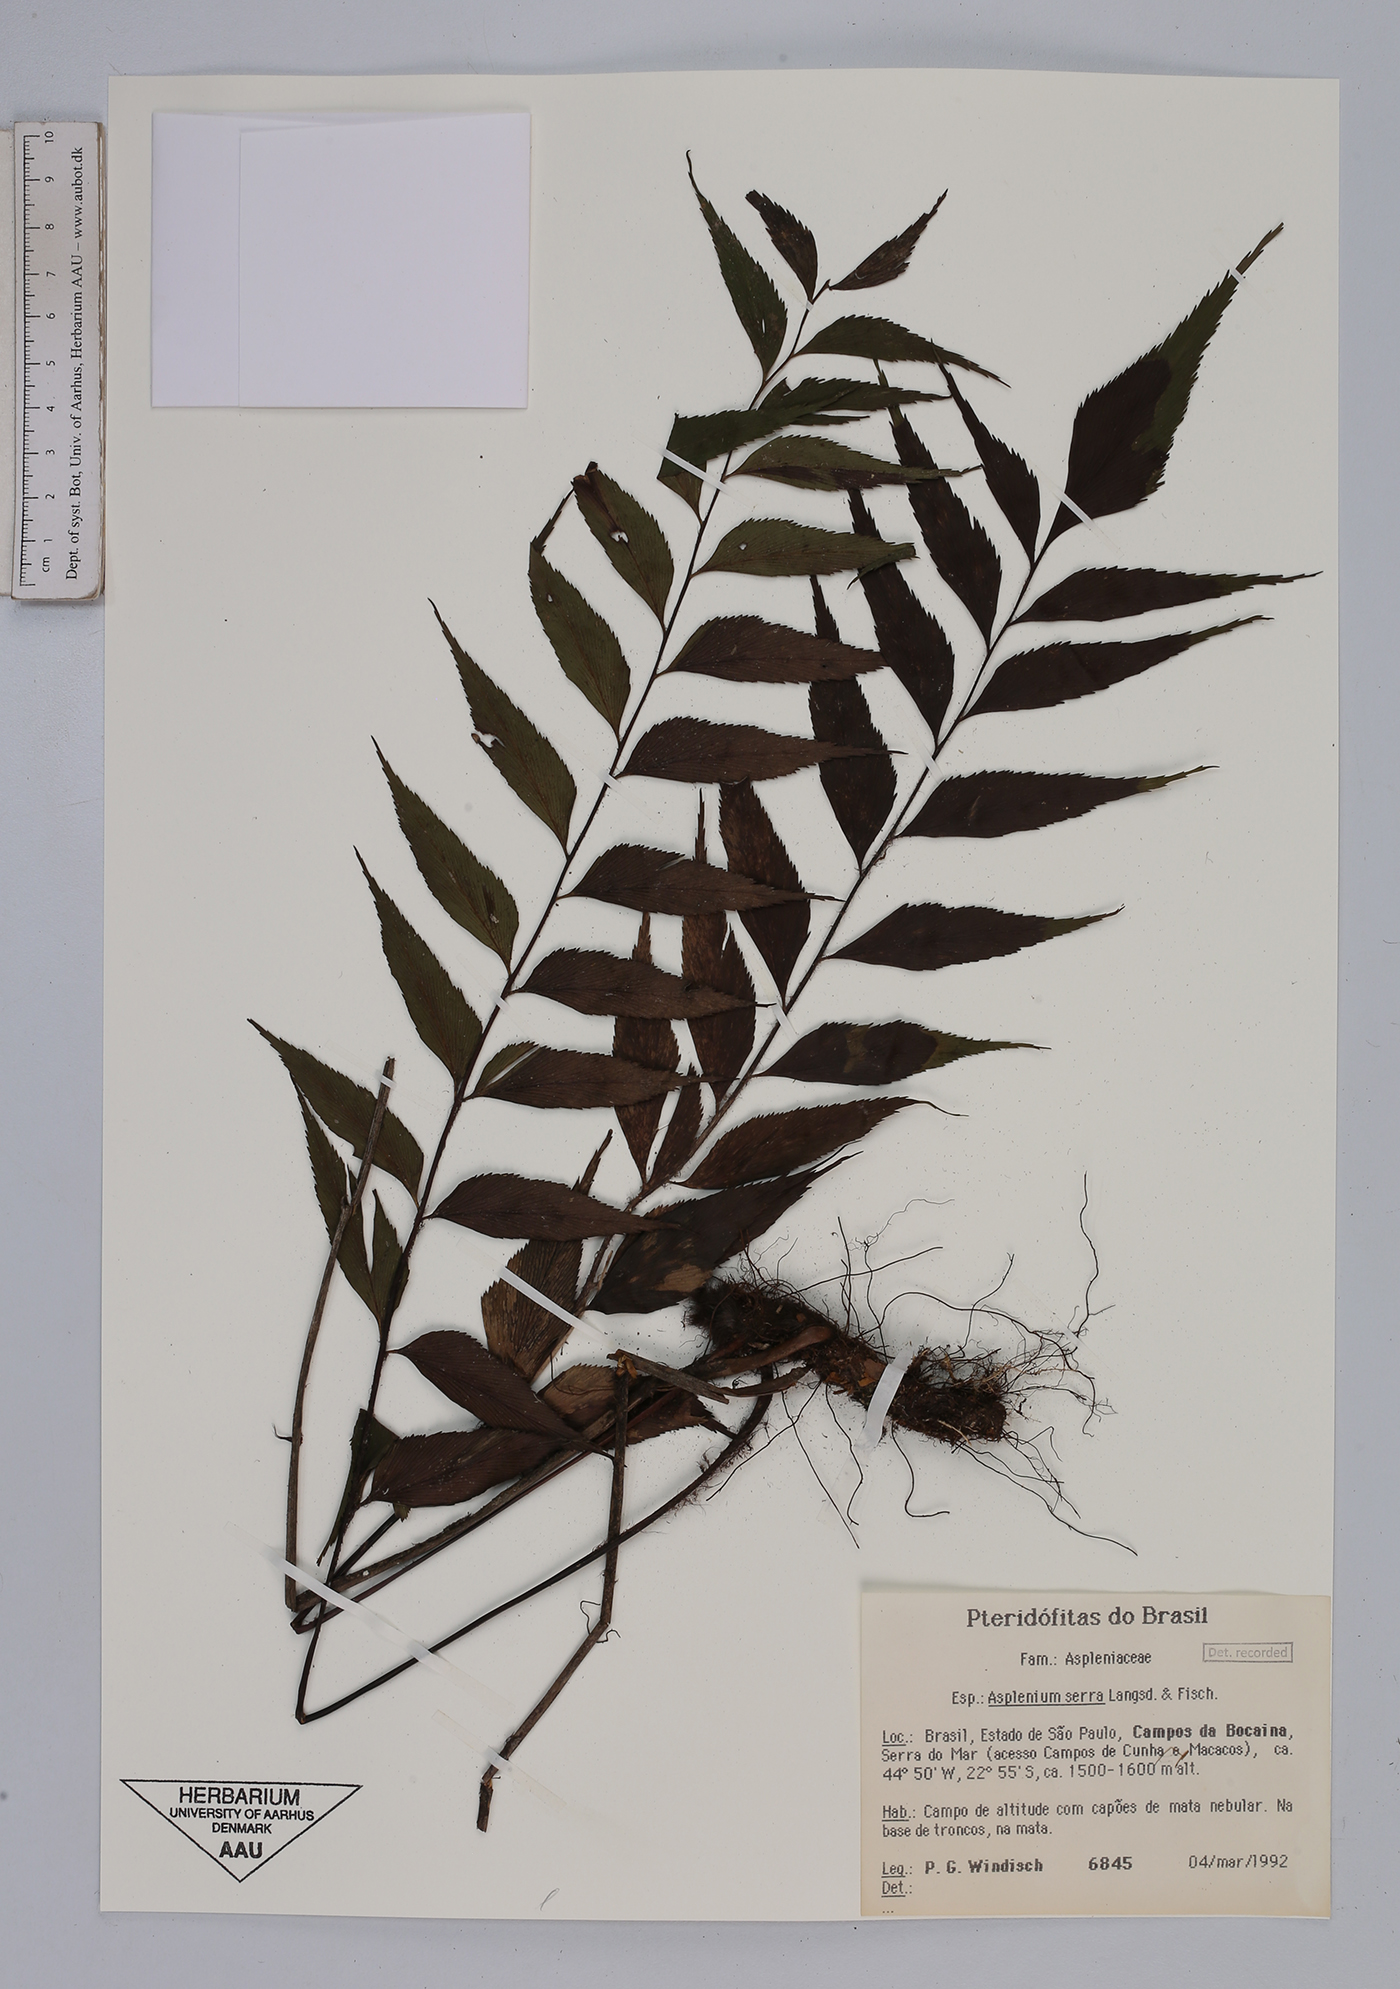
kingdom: Plantae
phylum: Tracheophyta
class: Polypodiopsida
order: Polypodiales
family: Aspleniaceae
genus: Asplenium
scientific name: Asplenium serra
